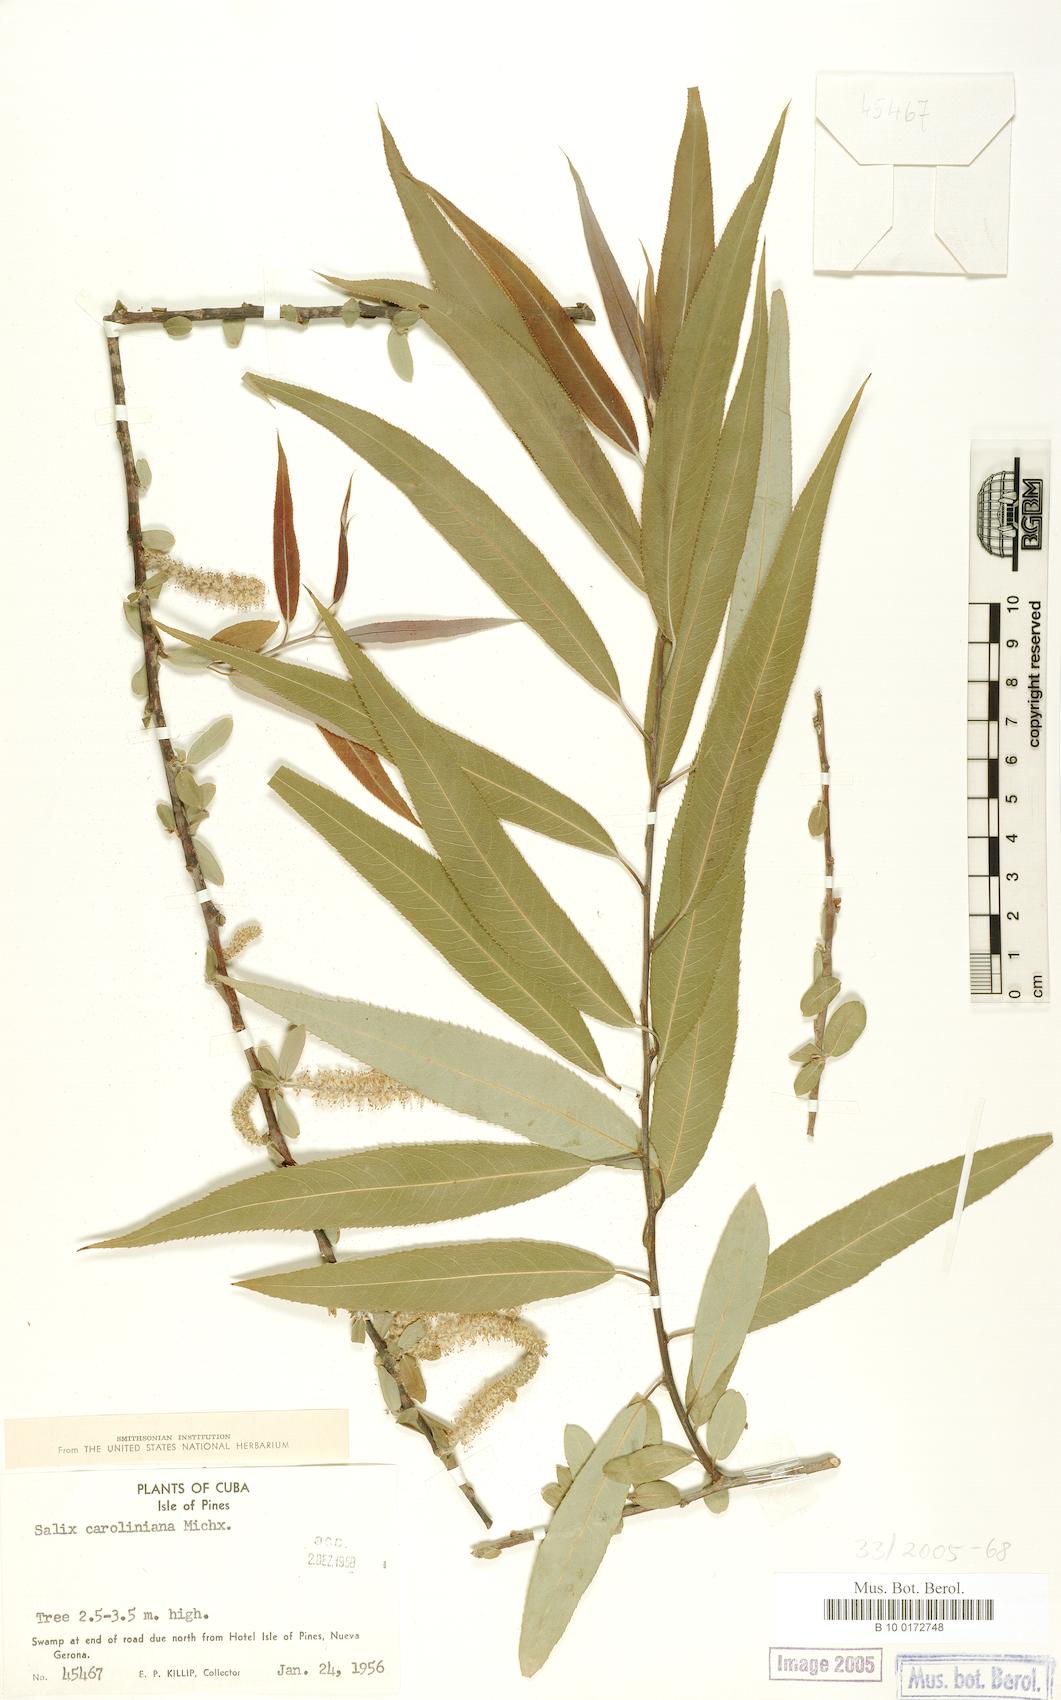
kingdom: Plantae
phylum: Tracheophyta
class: Magnoliopsida
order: Malpighiales
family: Salicaceae
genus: Salix
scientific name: Salix caroliniana
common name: Carolina willow
